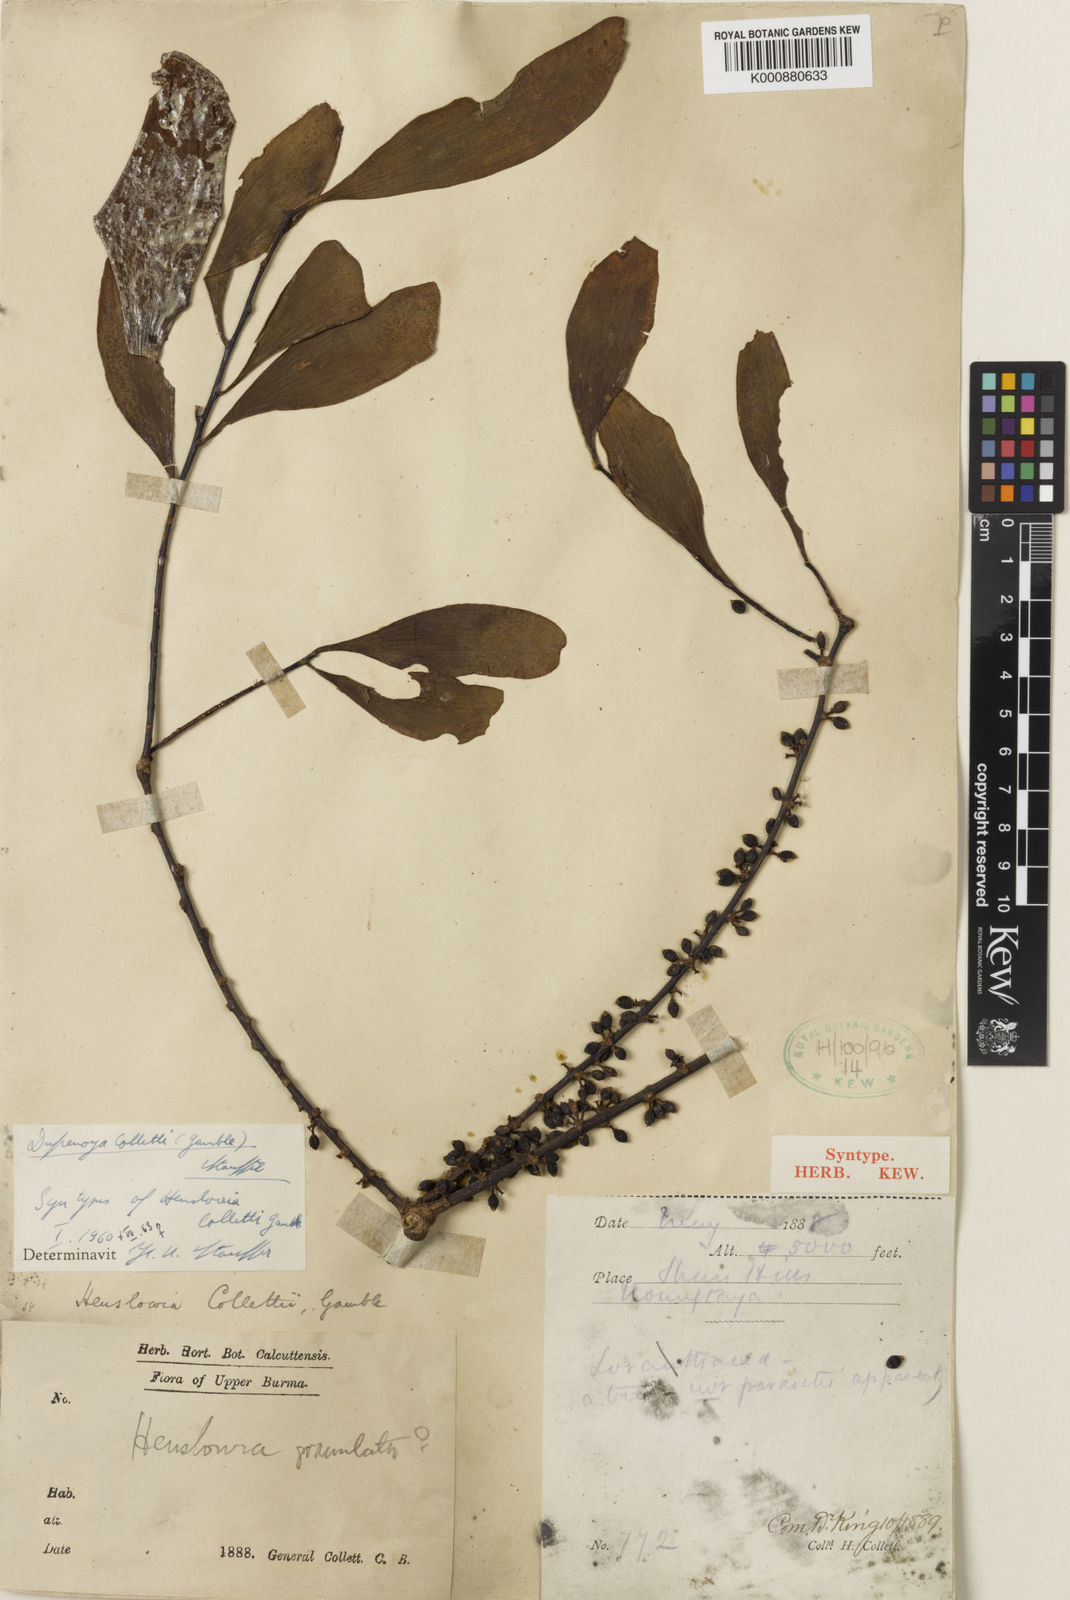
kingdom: Plantae
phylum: Tracheophyta
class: Magnoliopsida
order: Santalales
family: Amphorogynaceae
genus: Dufrenoya
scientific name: Dufrenoya collettii
